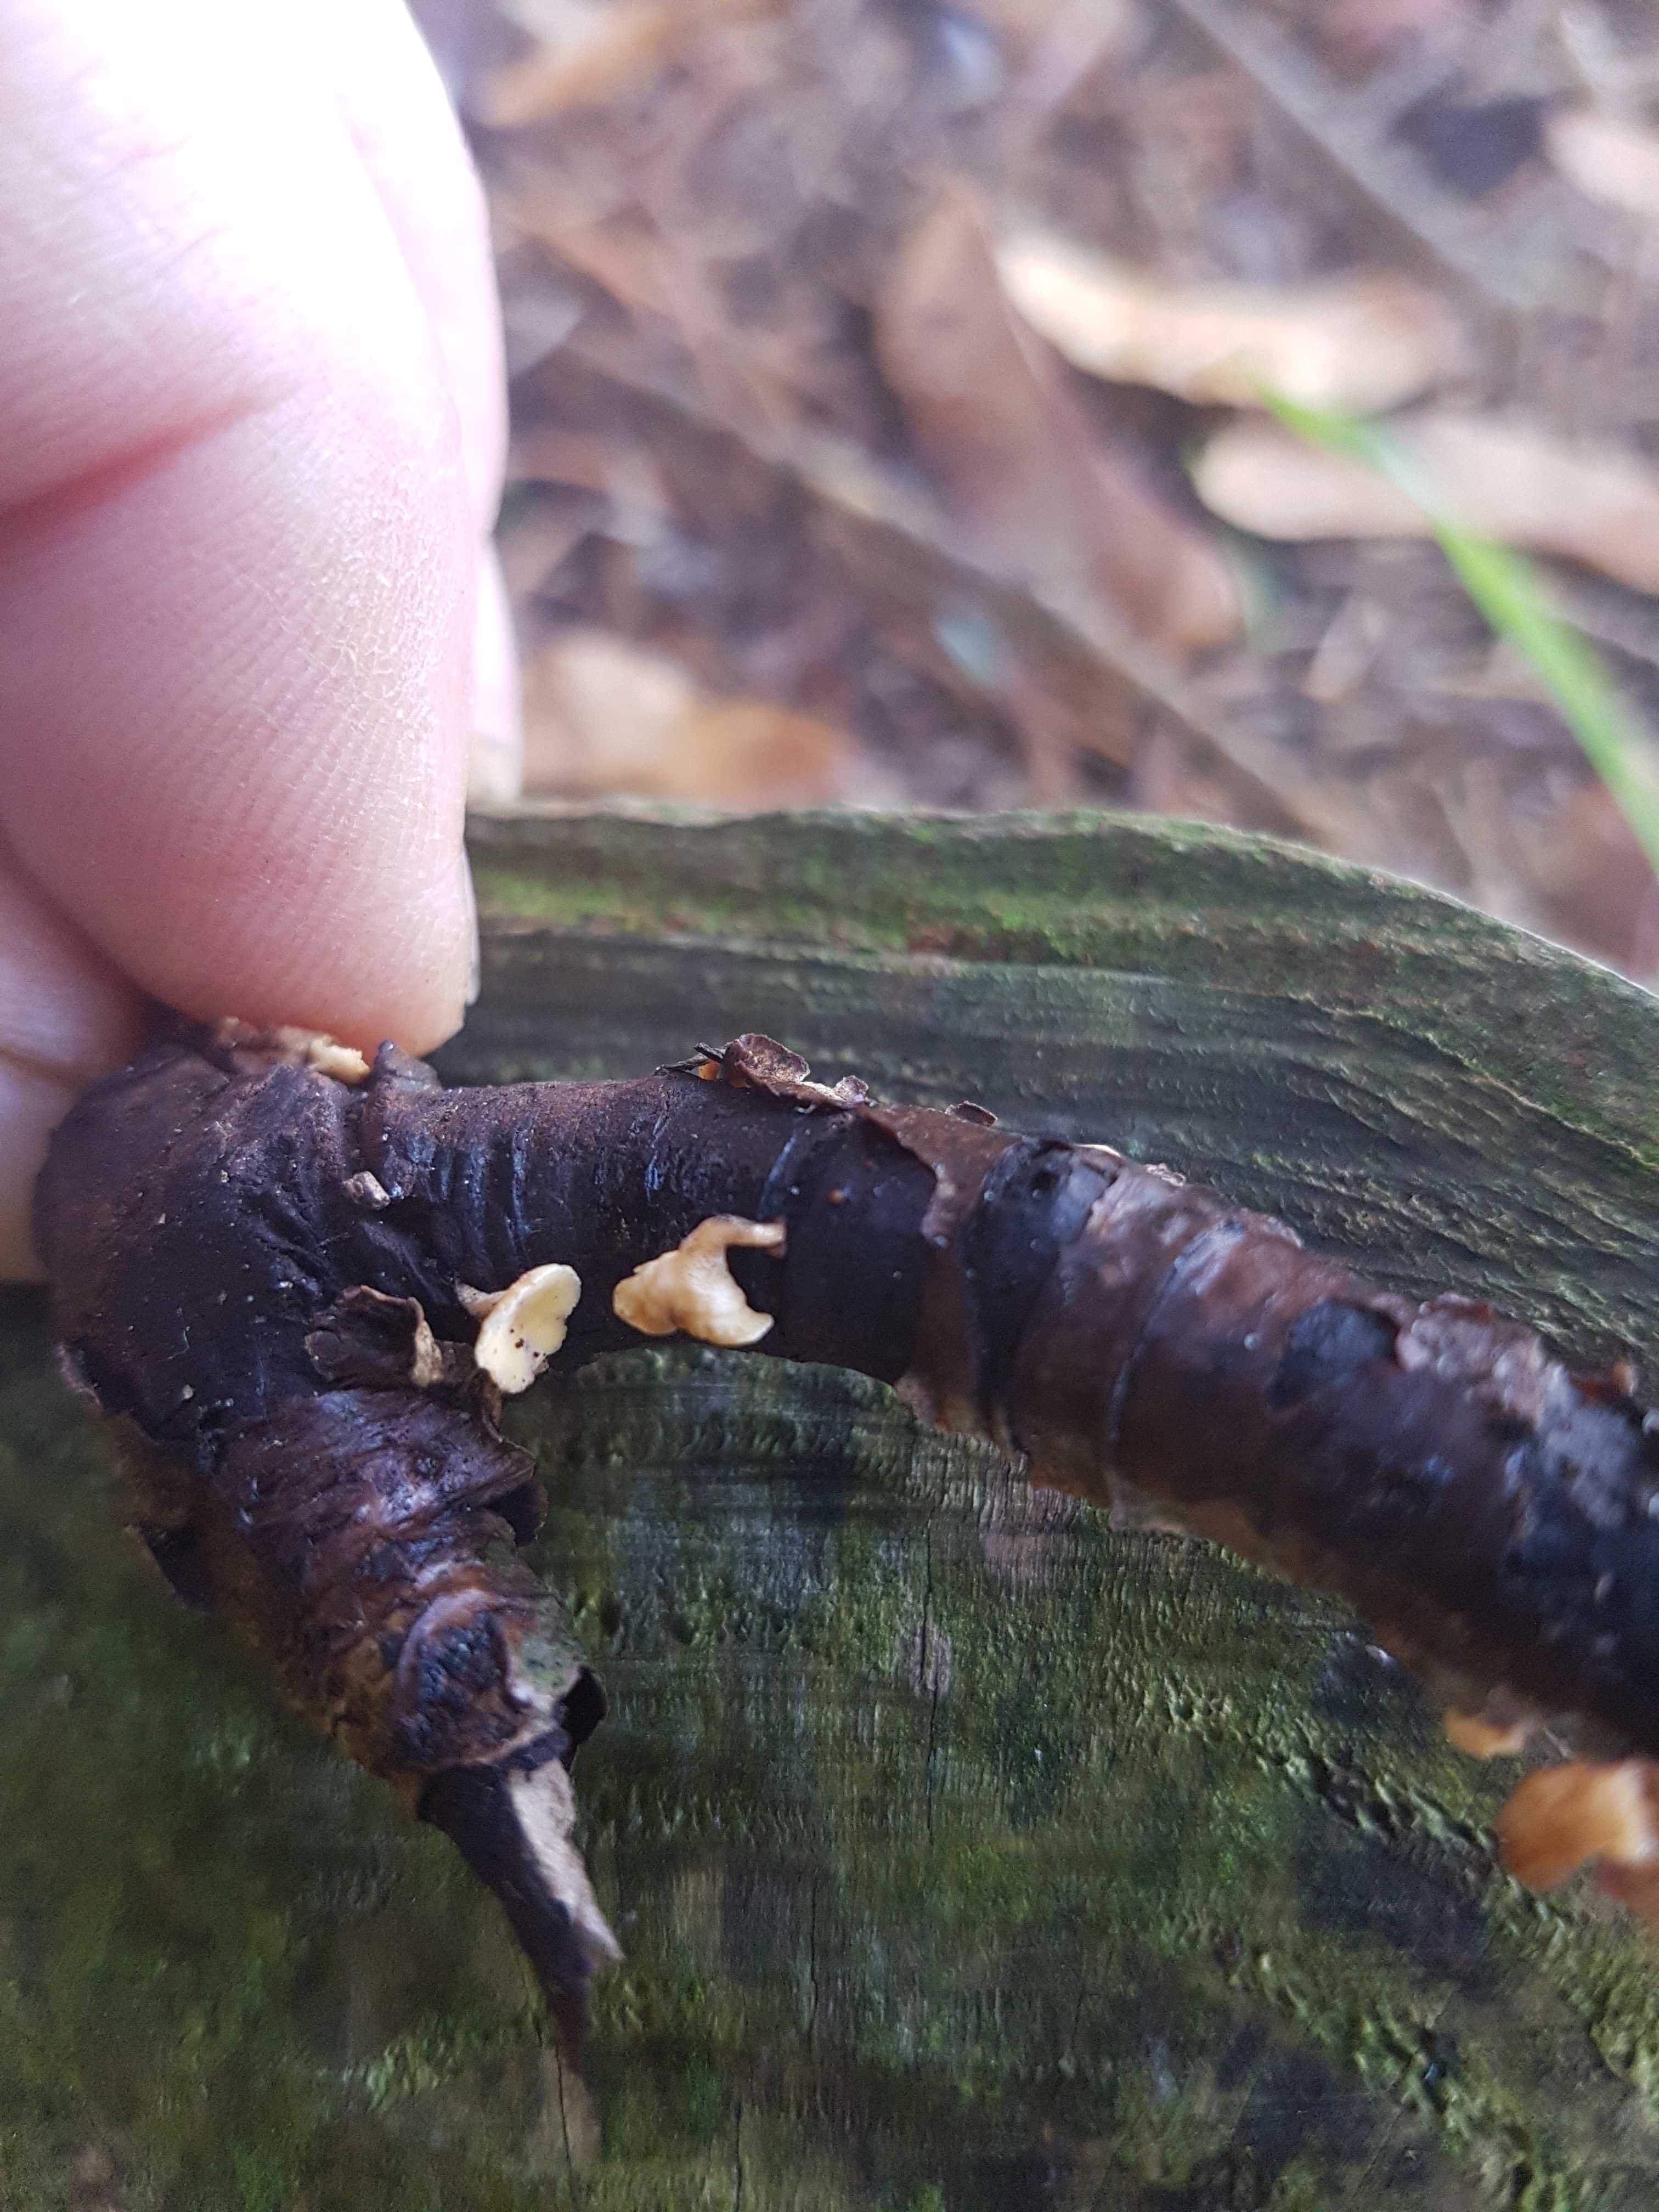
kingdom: Fungi
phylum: Ascomycota
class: Leotiomycetes
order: Helotiales
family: Helotiaceae
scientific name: Helotiaceae
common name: stilkskivefamilien
